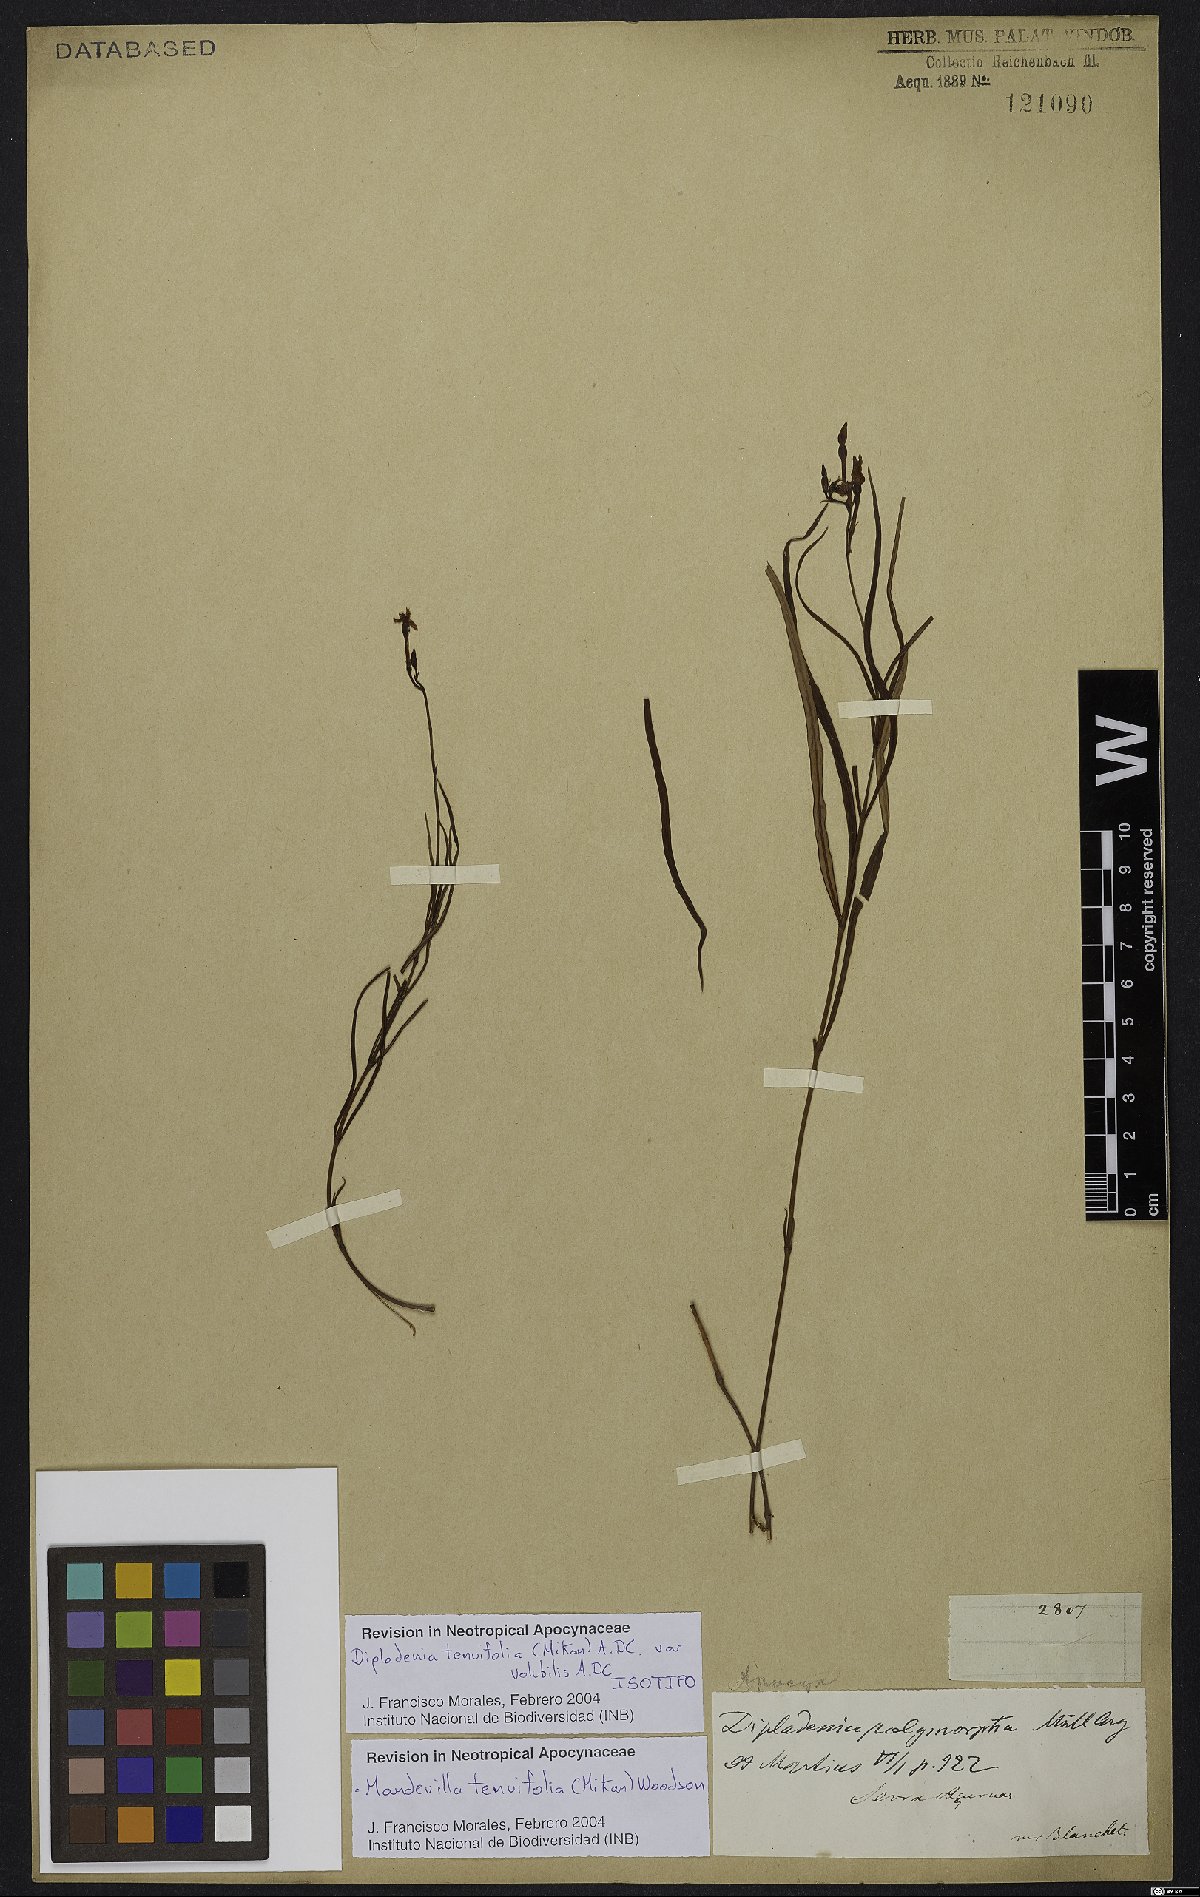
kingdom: Plantae
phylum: Tracheophyta
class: Magnoliopsida
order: Gentianales
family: Apocynaceae
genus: Mandevilla
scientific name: Mandevilla tenuifolia
